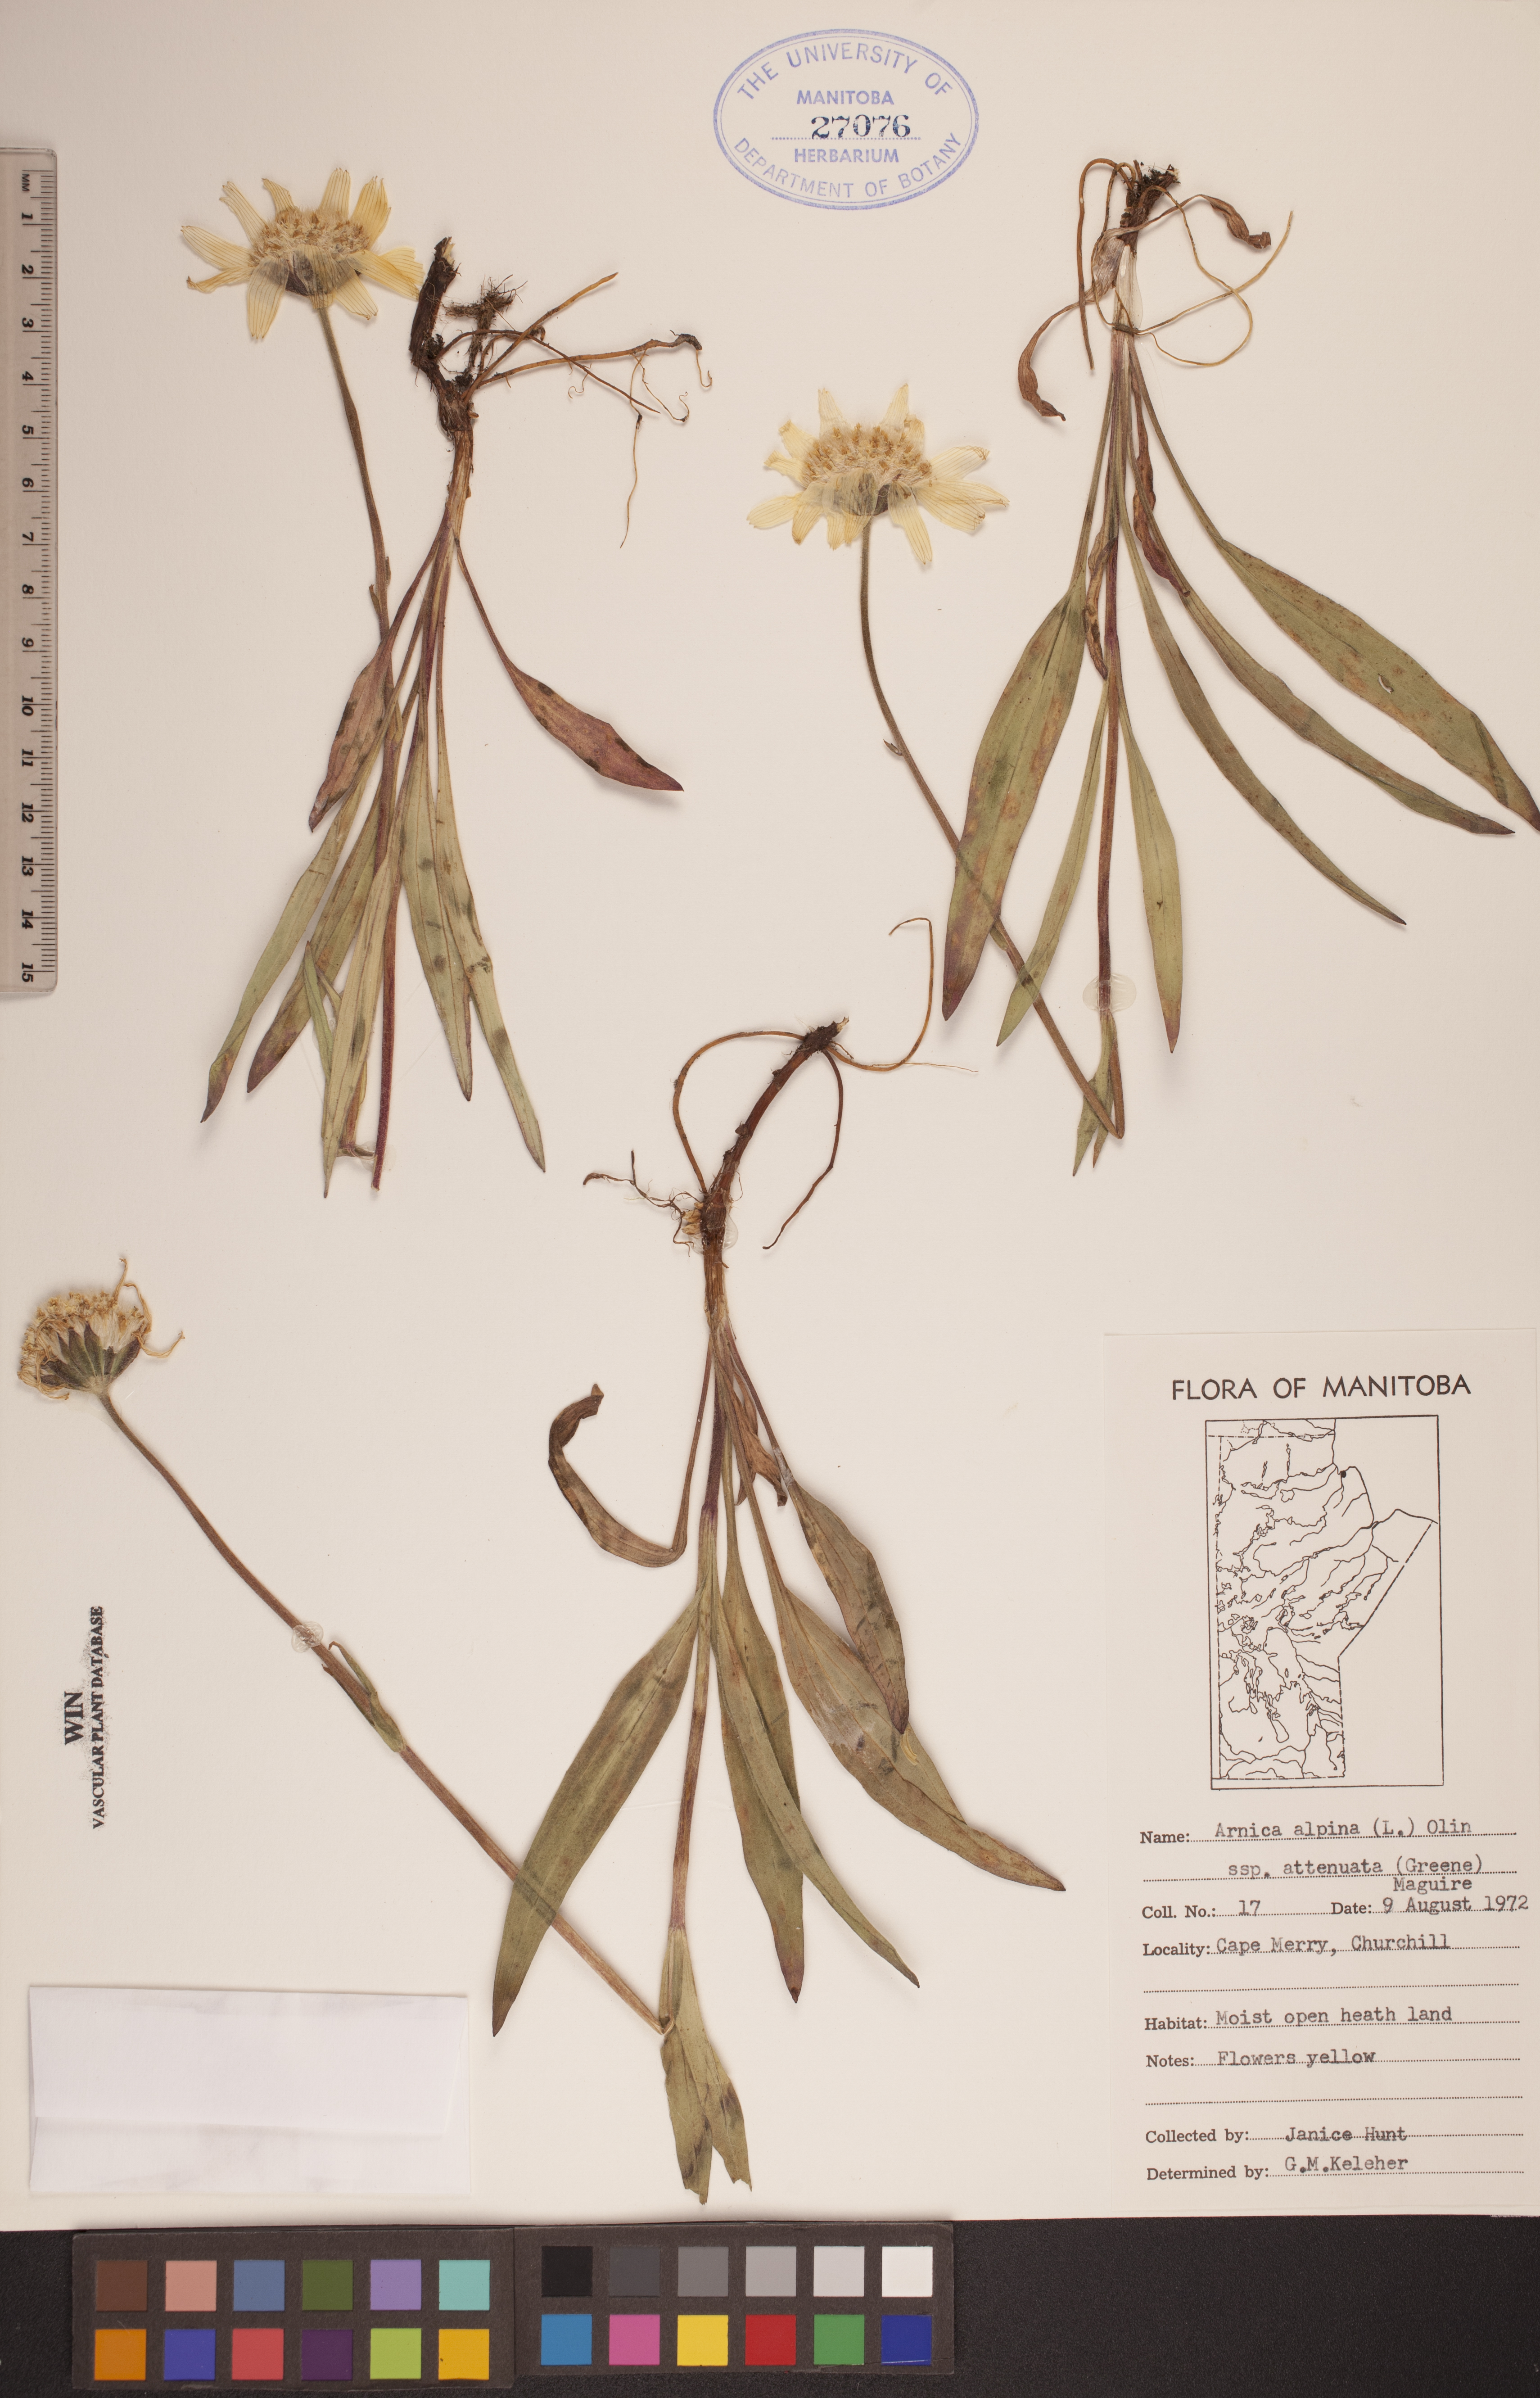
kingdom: Plantae
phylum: Tracheophyta
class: Magnoliopsida
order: Asterales
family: Asteraceae
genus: Arnica
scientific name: Arnica angustifolia
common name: Arctic arnica
